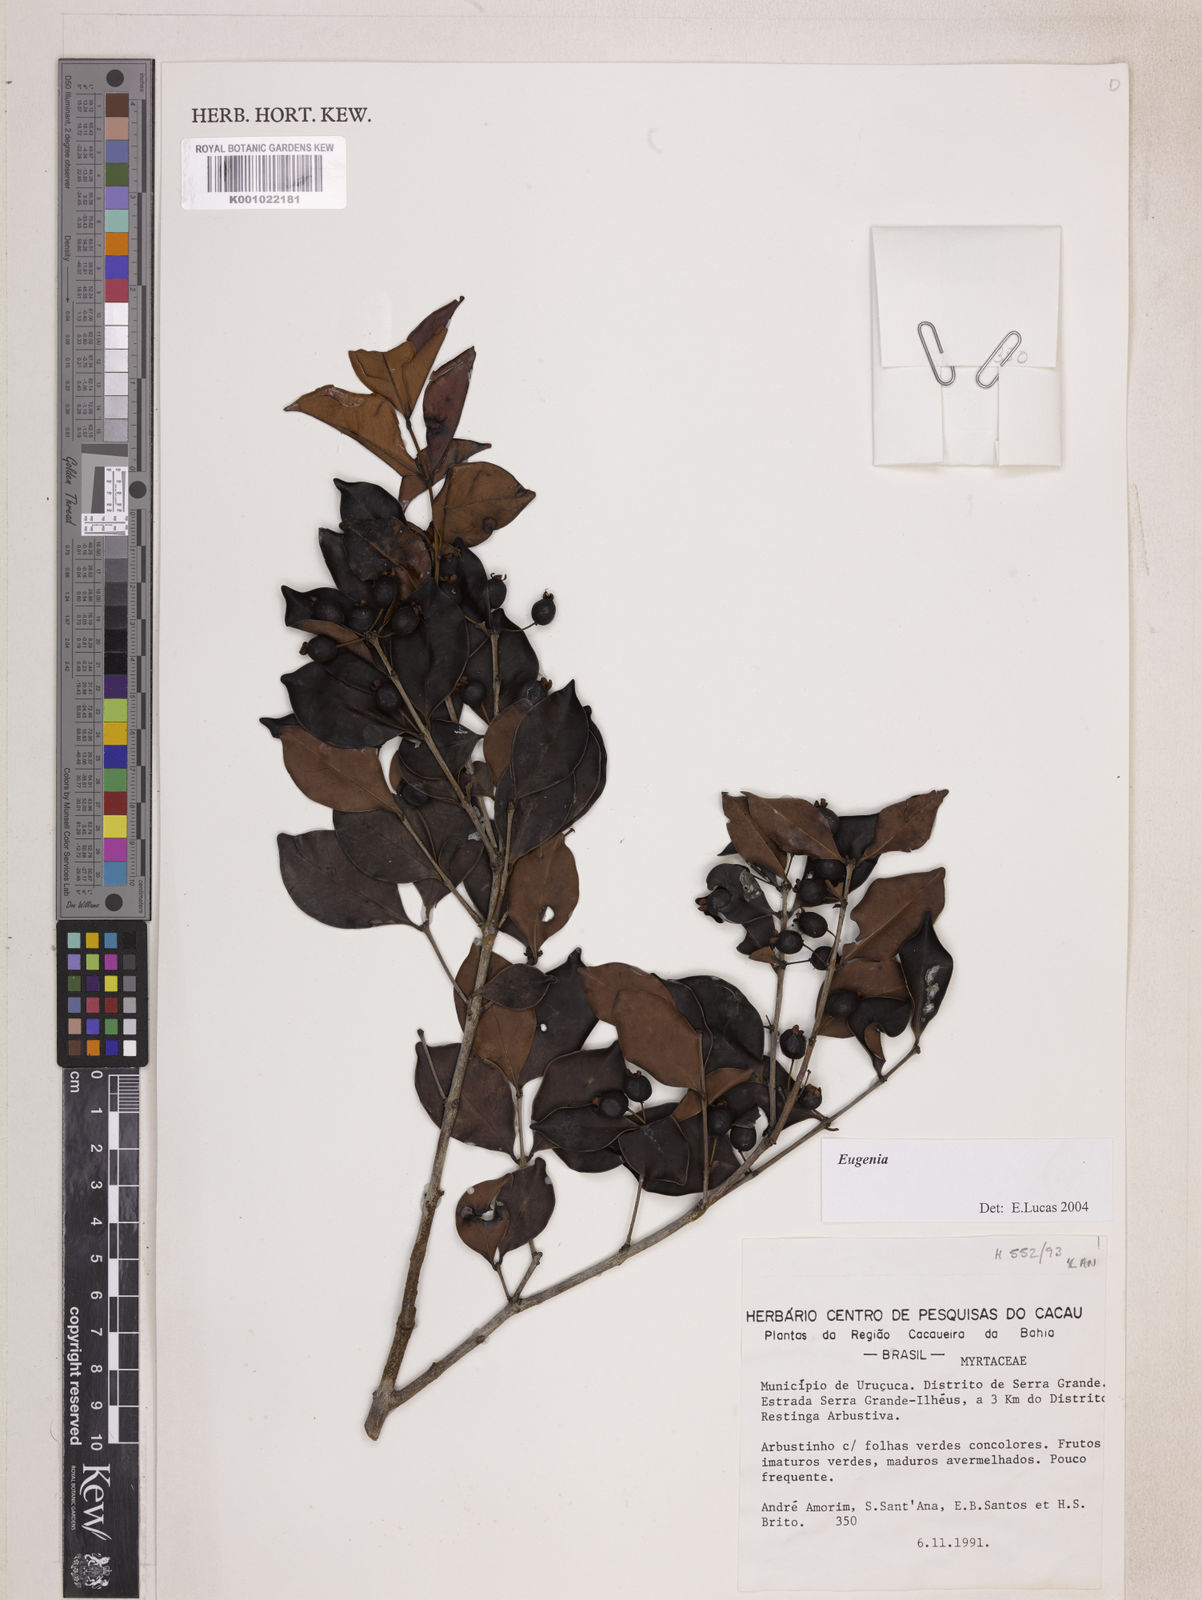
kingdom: Plantae
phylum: Tracheophyta
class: Magnoliopsida
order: Myrtales
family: Myrtaceae
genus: Eugenia
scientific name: Eugenia punicifolia
